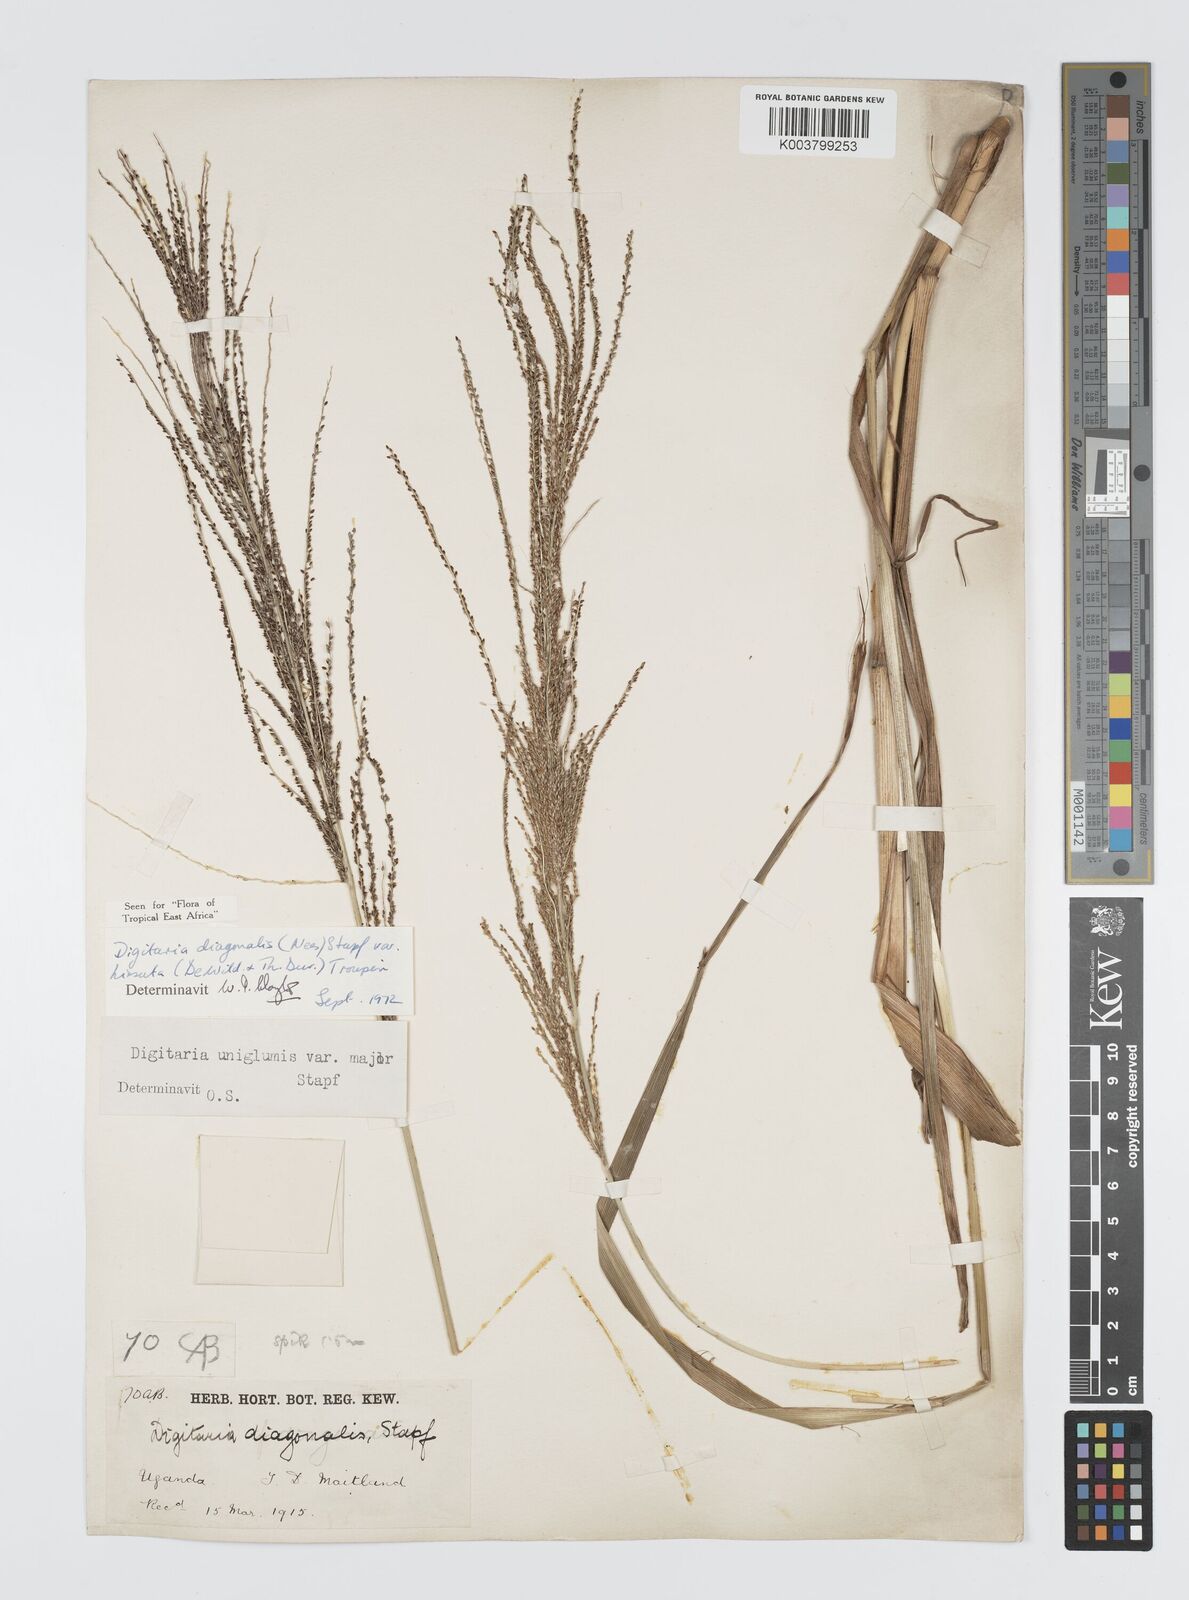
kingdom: Plantae
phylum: Tracheophyta
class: Liliopsida
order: Poales
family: Poaceae
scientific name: Poaceae
